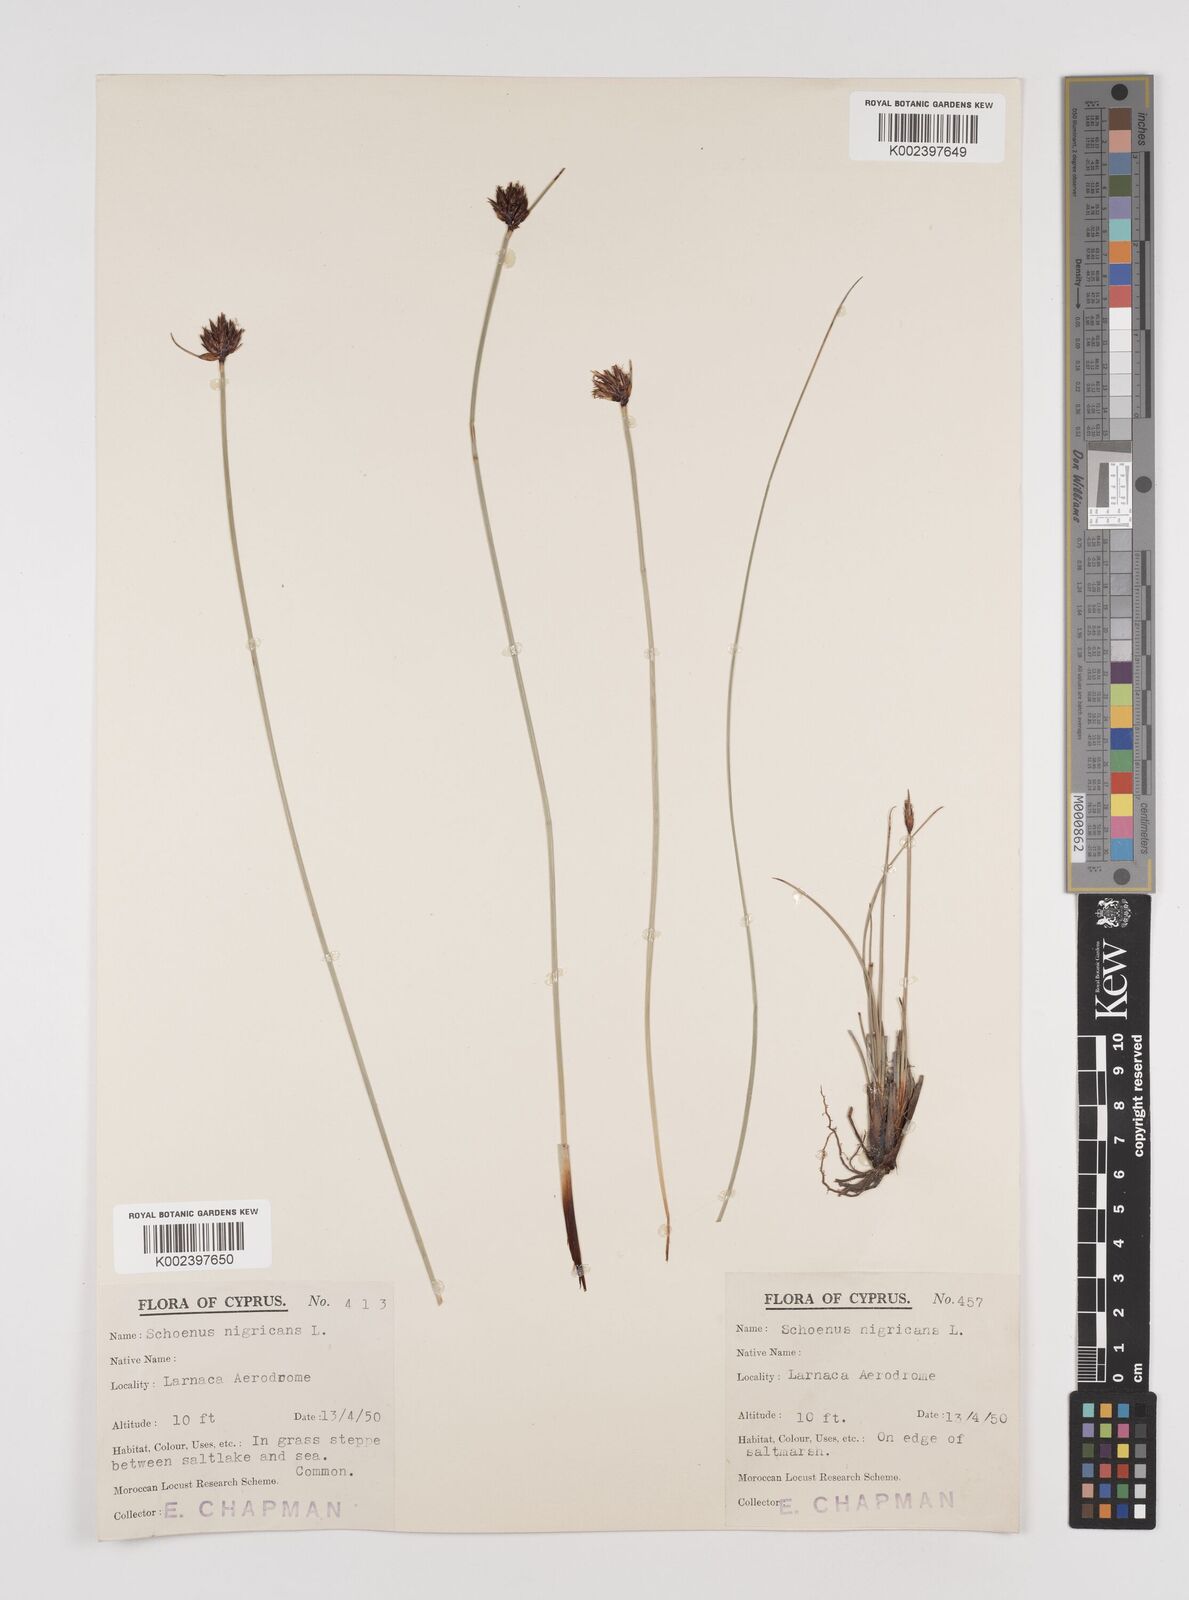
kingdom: Plantae
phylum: Tracheophyta
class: Liliopsida
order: Poales
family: Cyperaceae
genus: Schoenus
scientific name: Schoenus nigricans
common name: Black bog-rush
